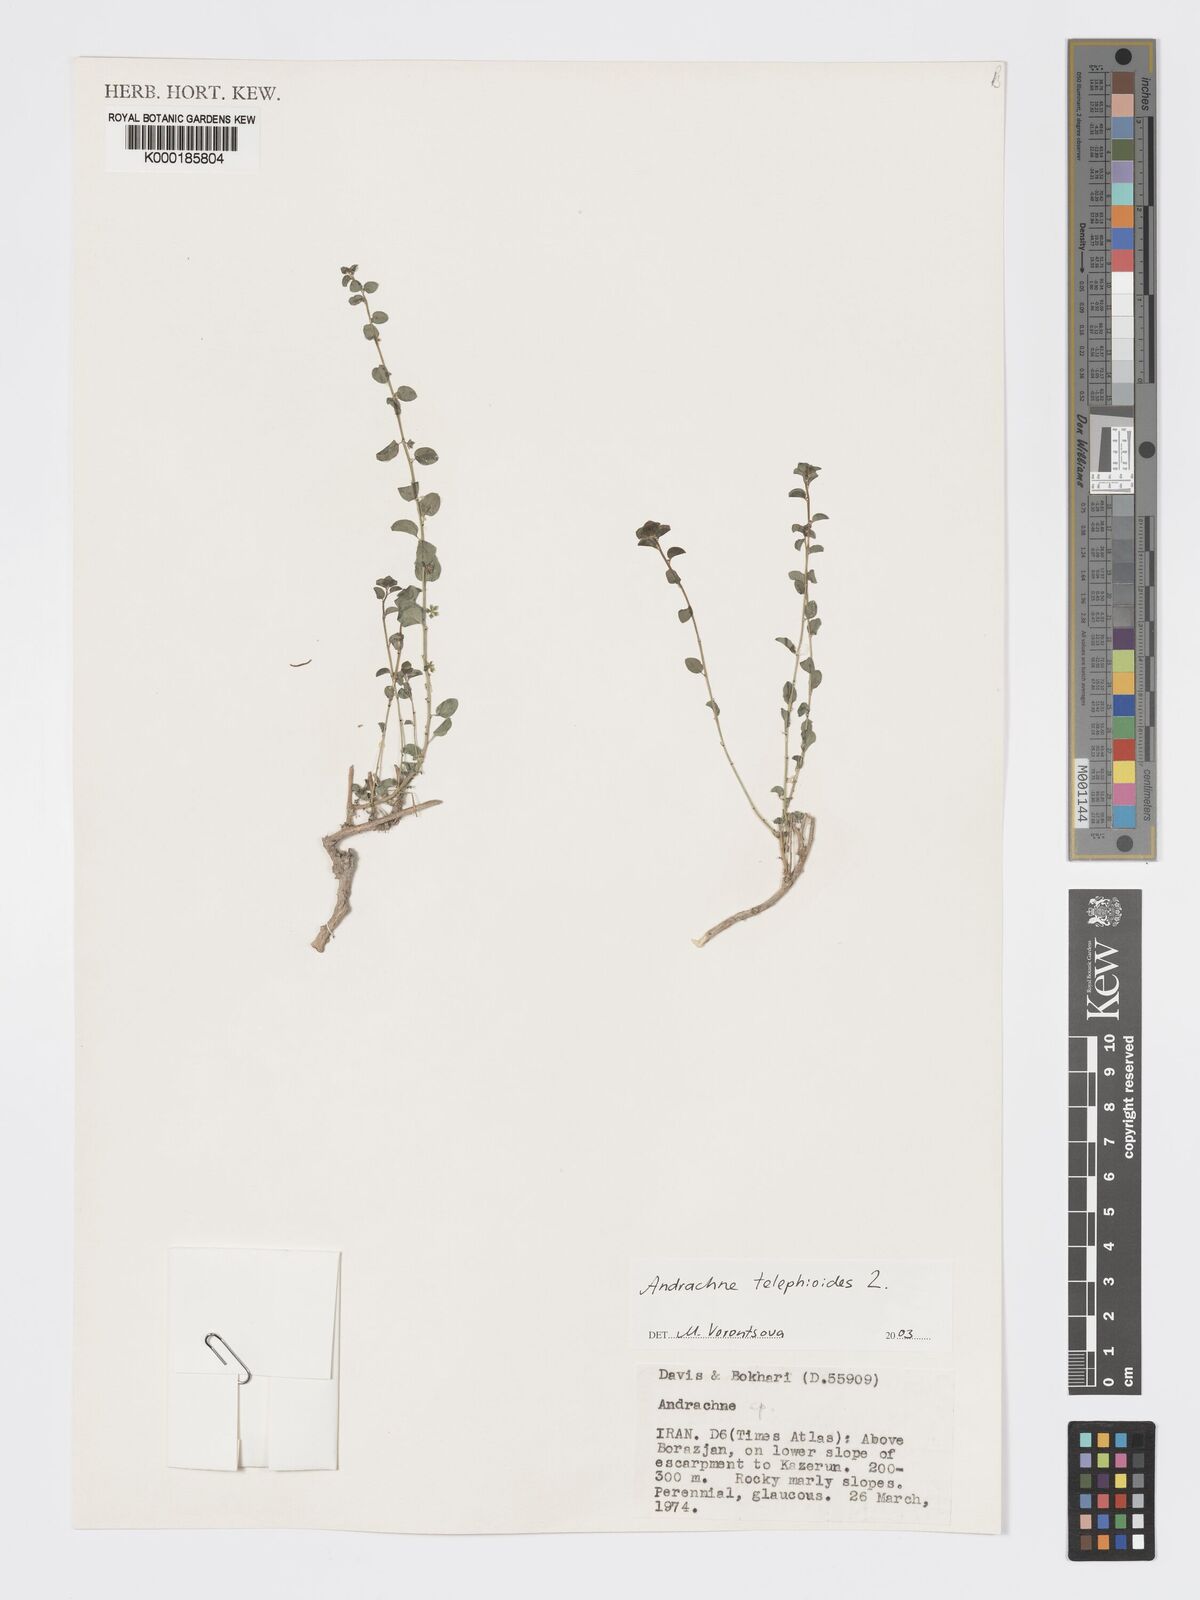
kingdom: Plantae
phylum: Tracheophyta
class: Magnoliopsida
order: Malpighiales
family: Phyllanthaceae
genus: Andrachne
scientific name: Andrachne telephioides
